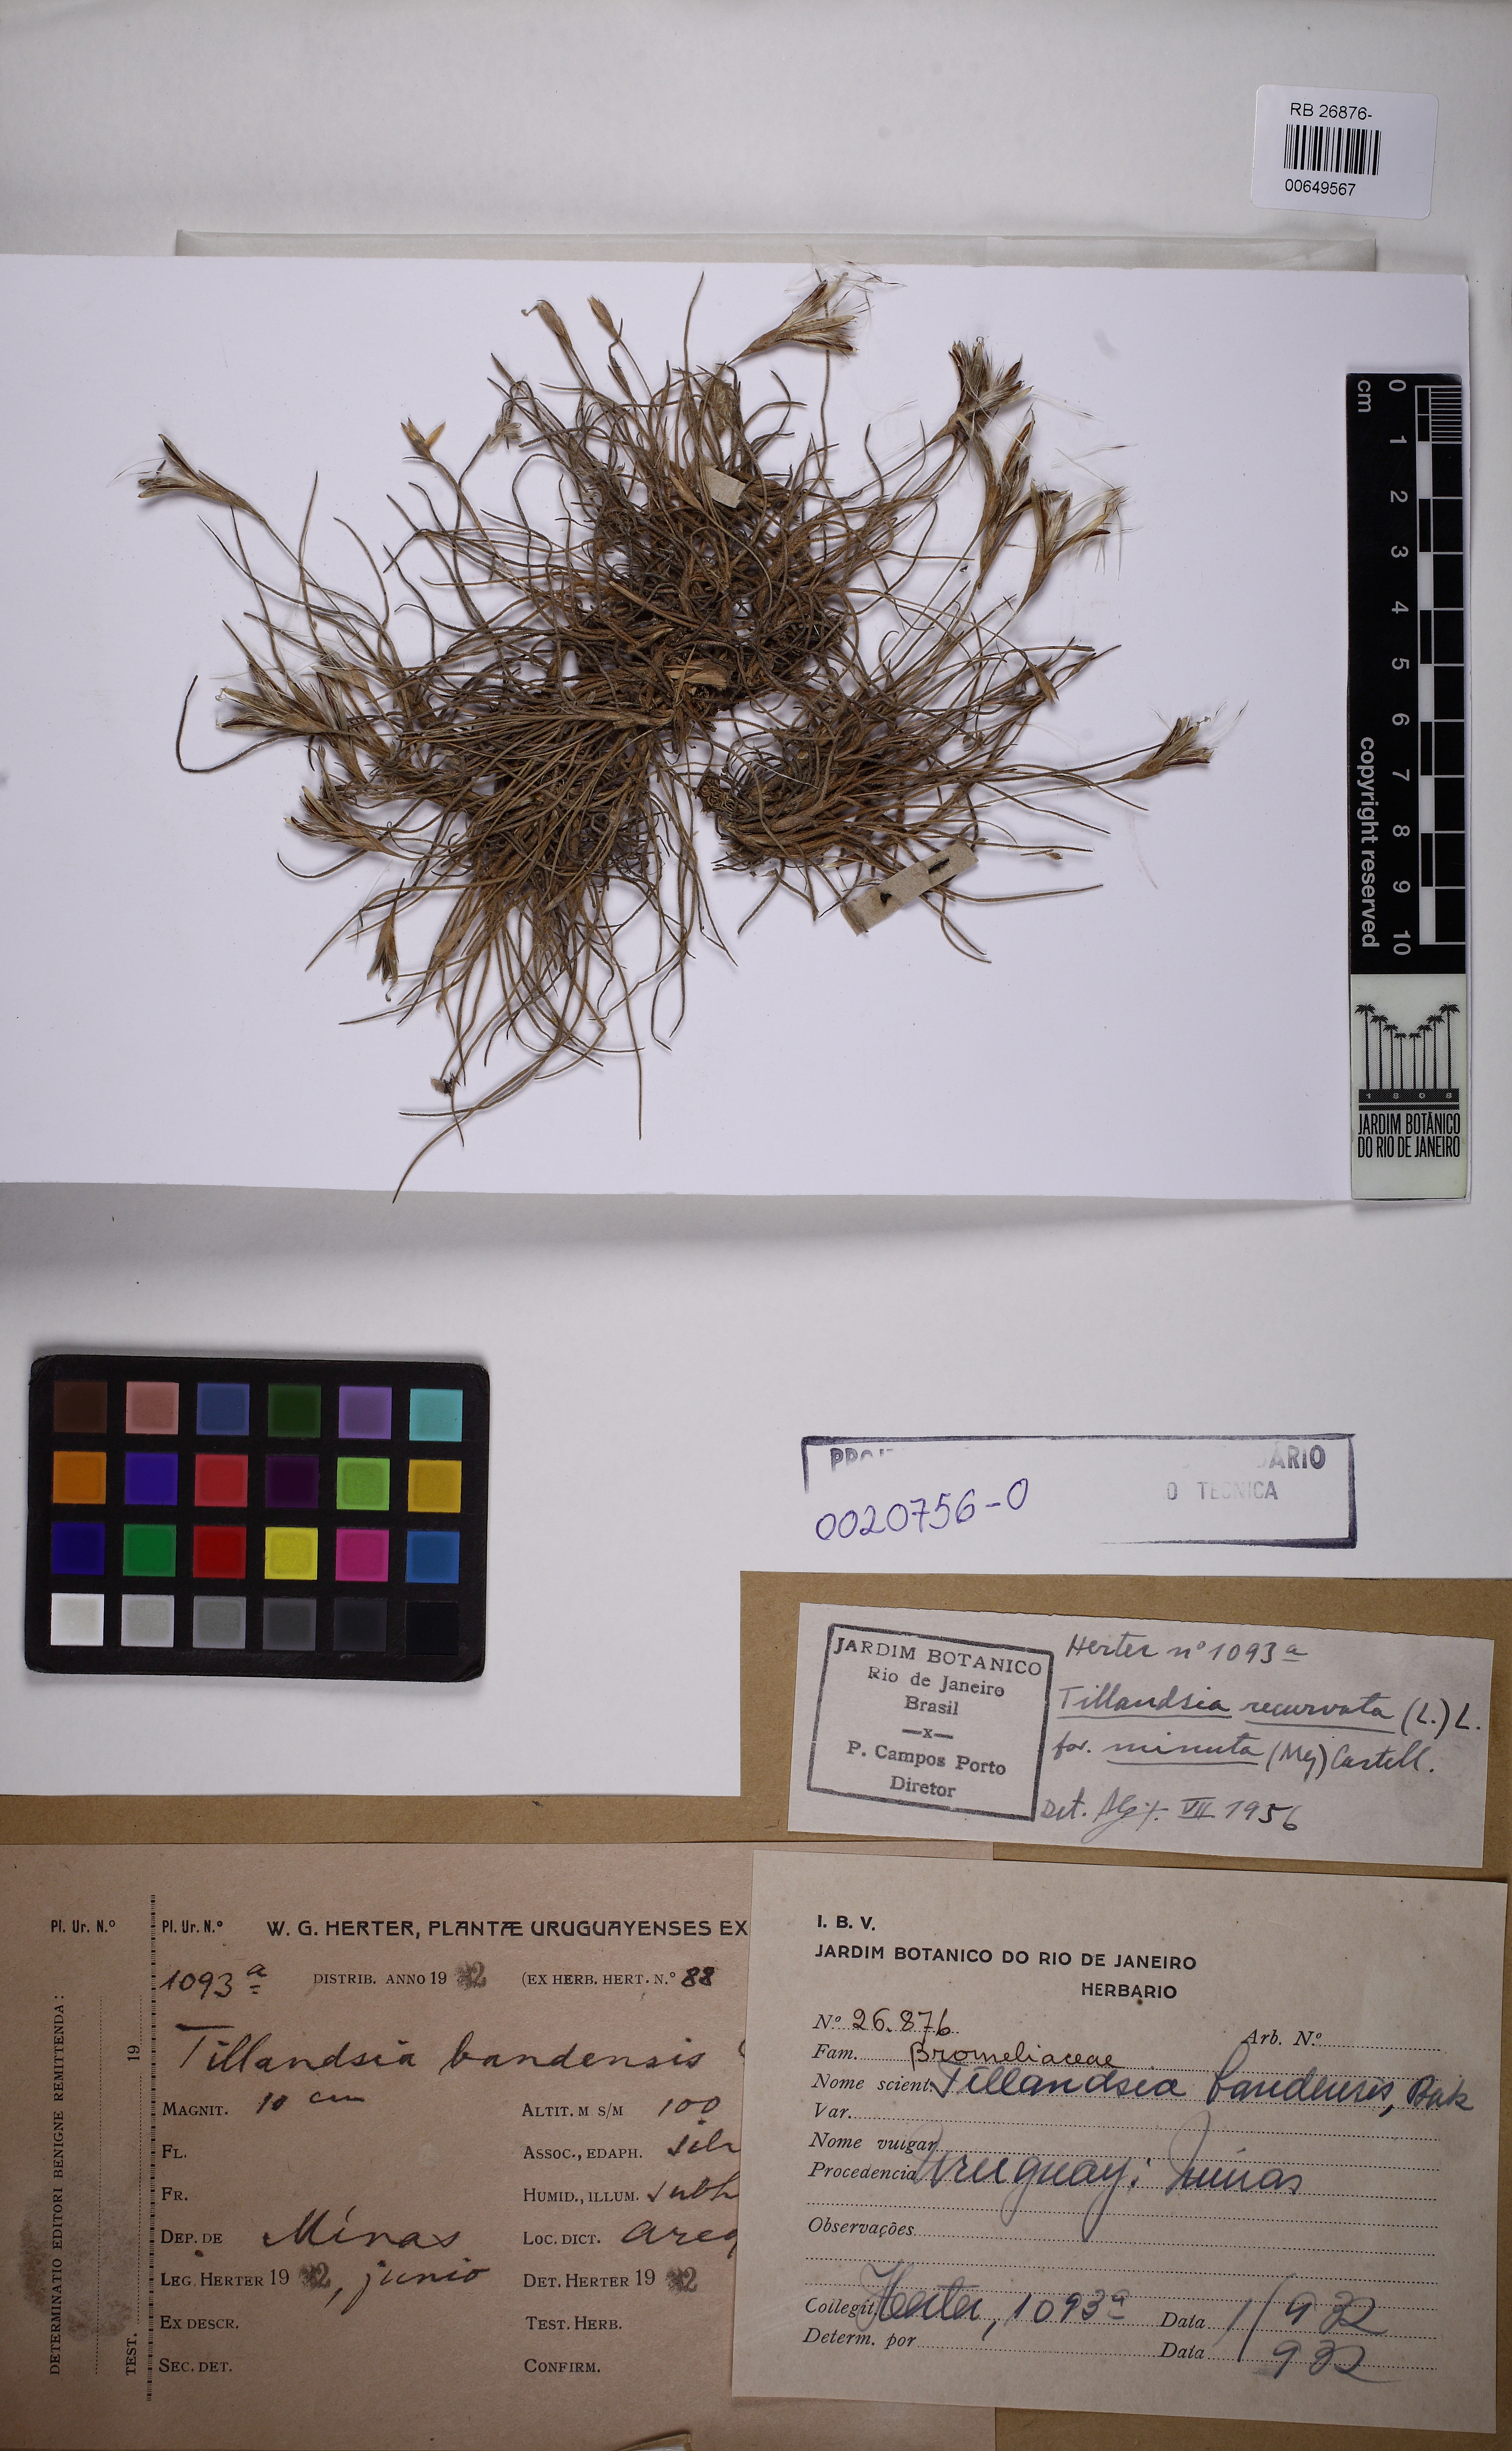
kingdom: Plantae
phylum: Tracheophyta
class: Liliopsida
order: Poales
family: Bromeliaceae
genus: Tillandsia
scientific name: Tillandsia recurvata
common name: Small ballmoss
